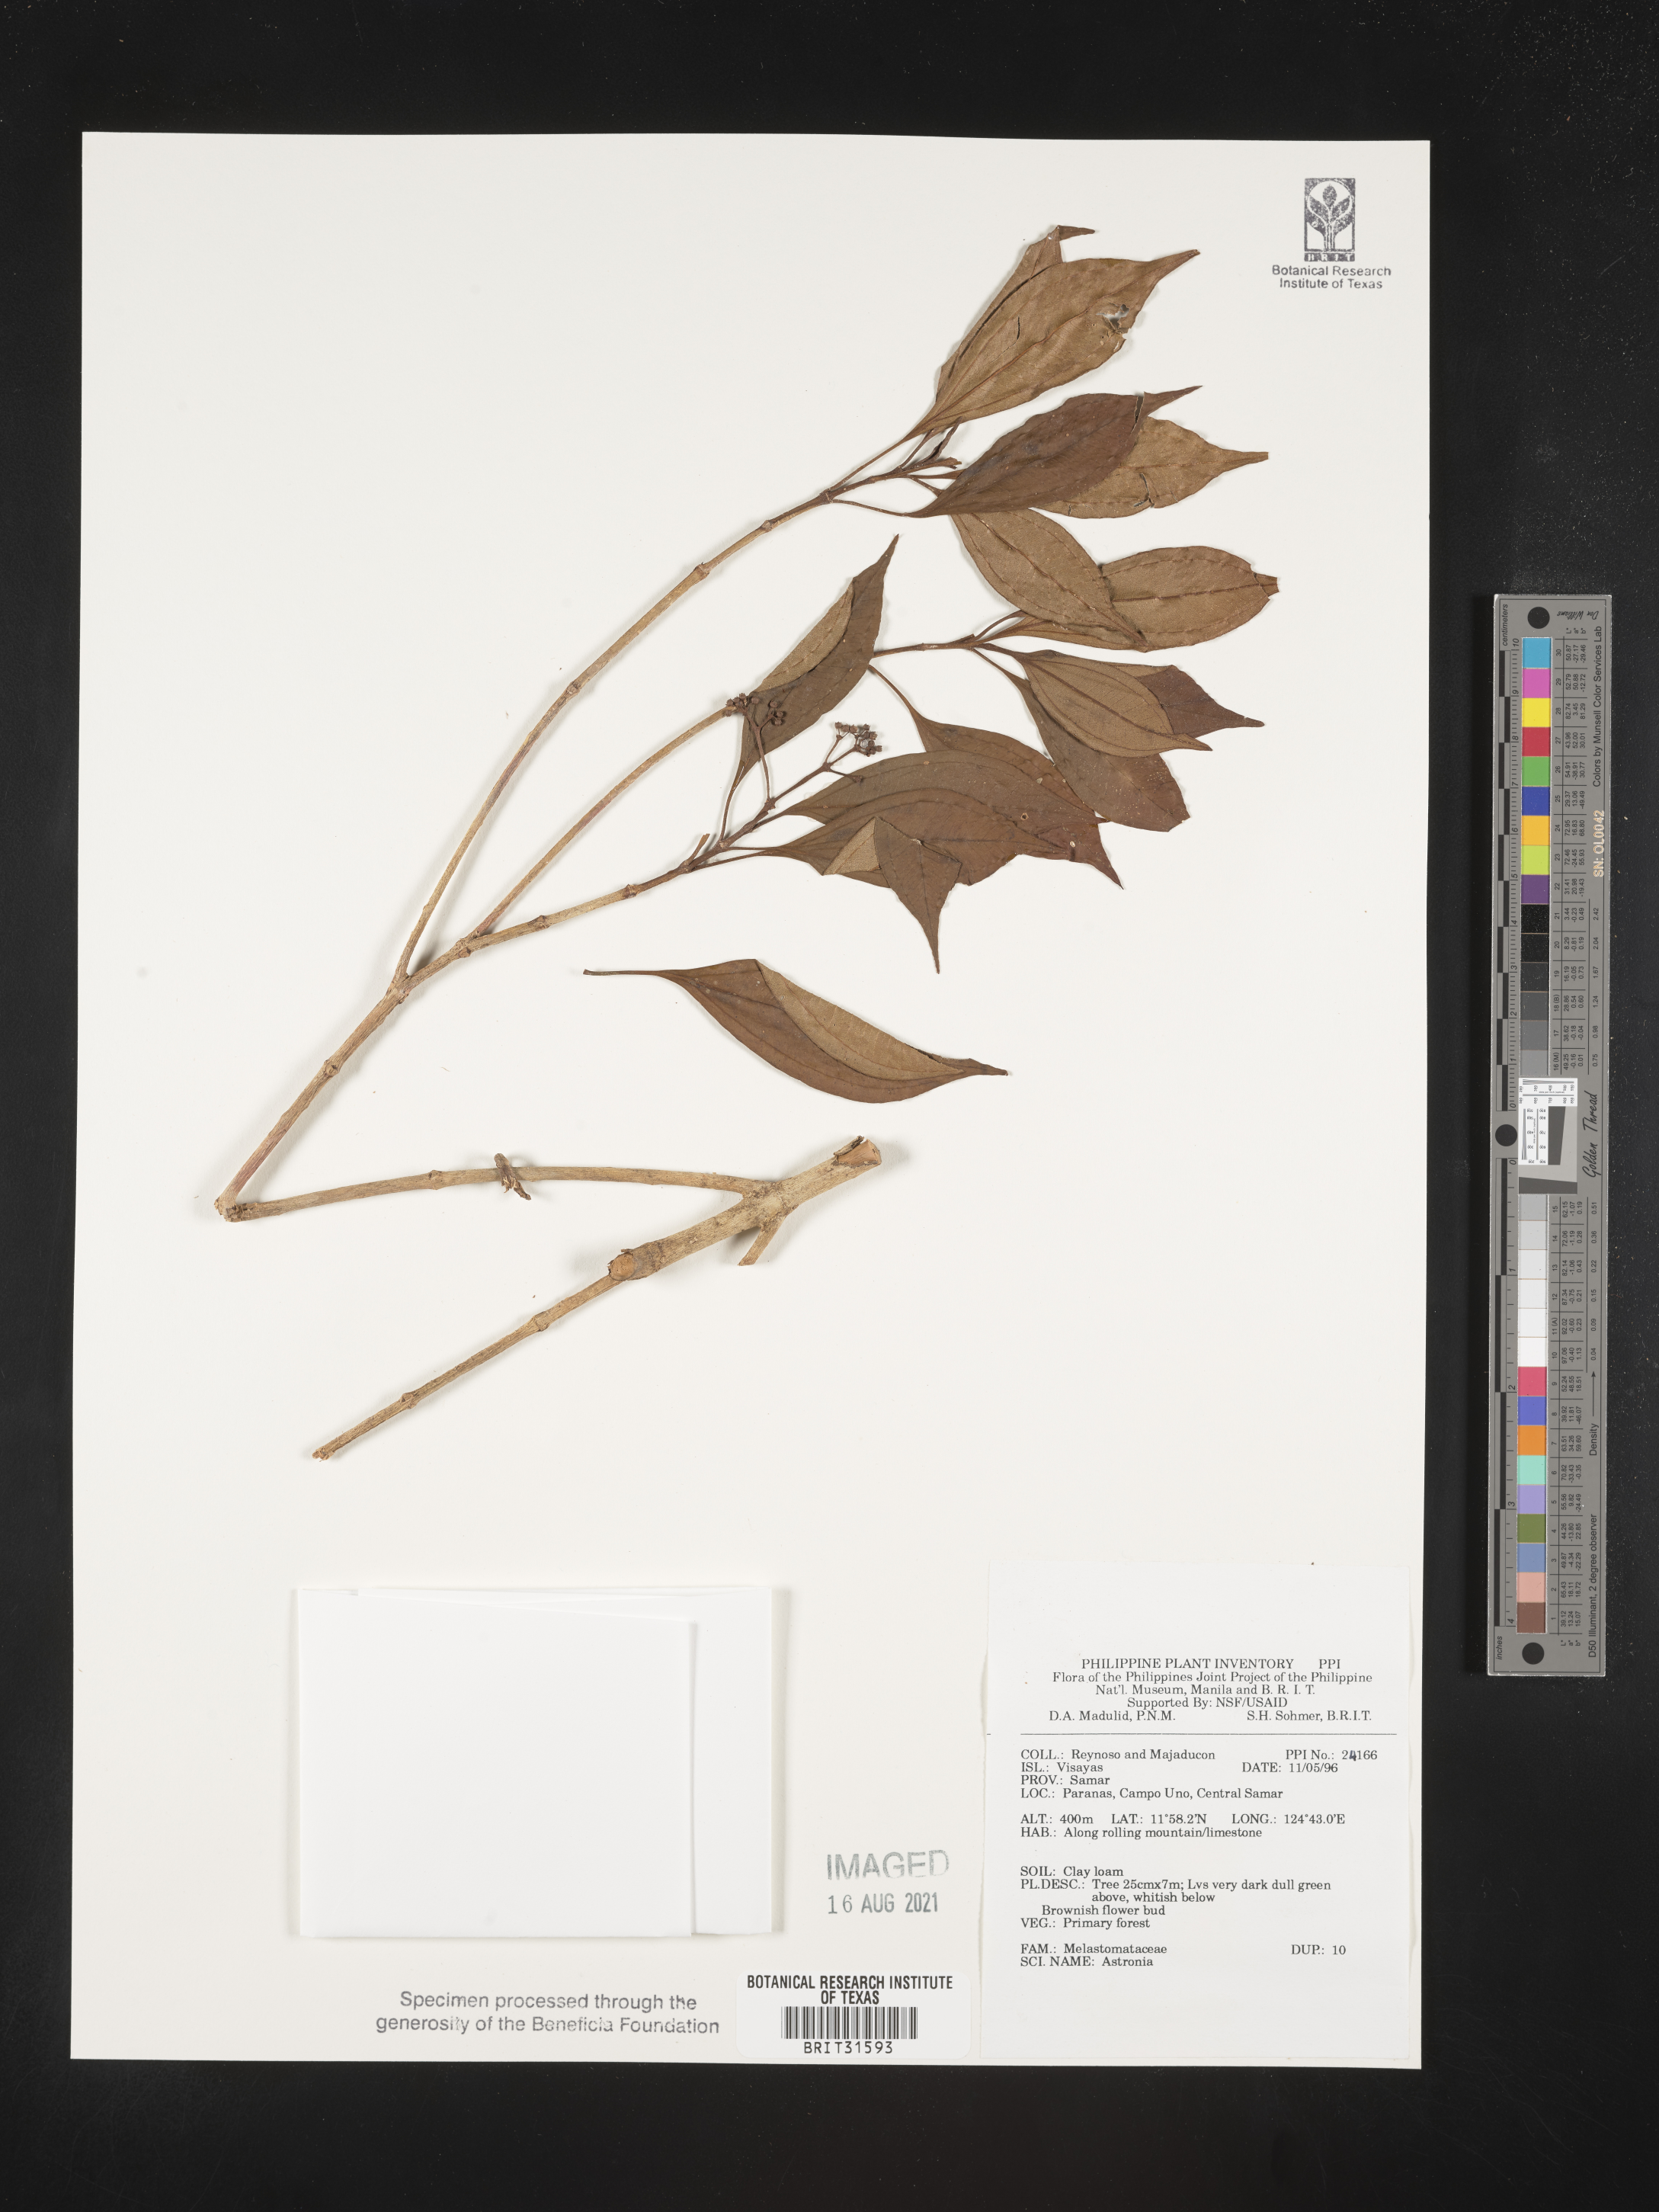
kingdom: Plantae
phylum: Tracheophyta
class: Magnoliopsida
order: Myrtales
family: Melastomataceae
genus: Astronia
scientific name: Astronia
